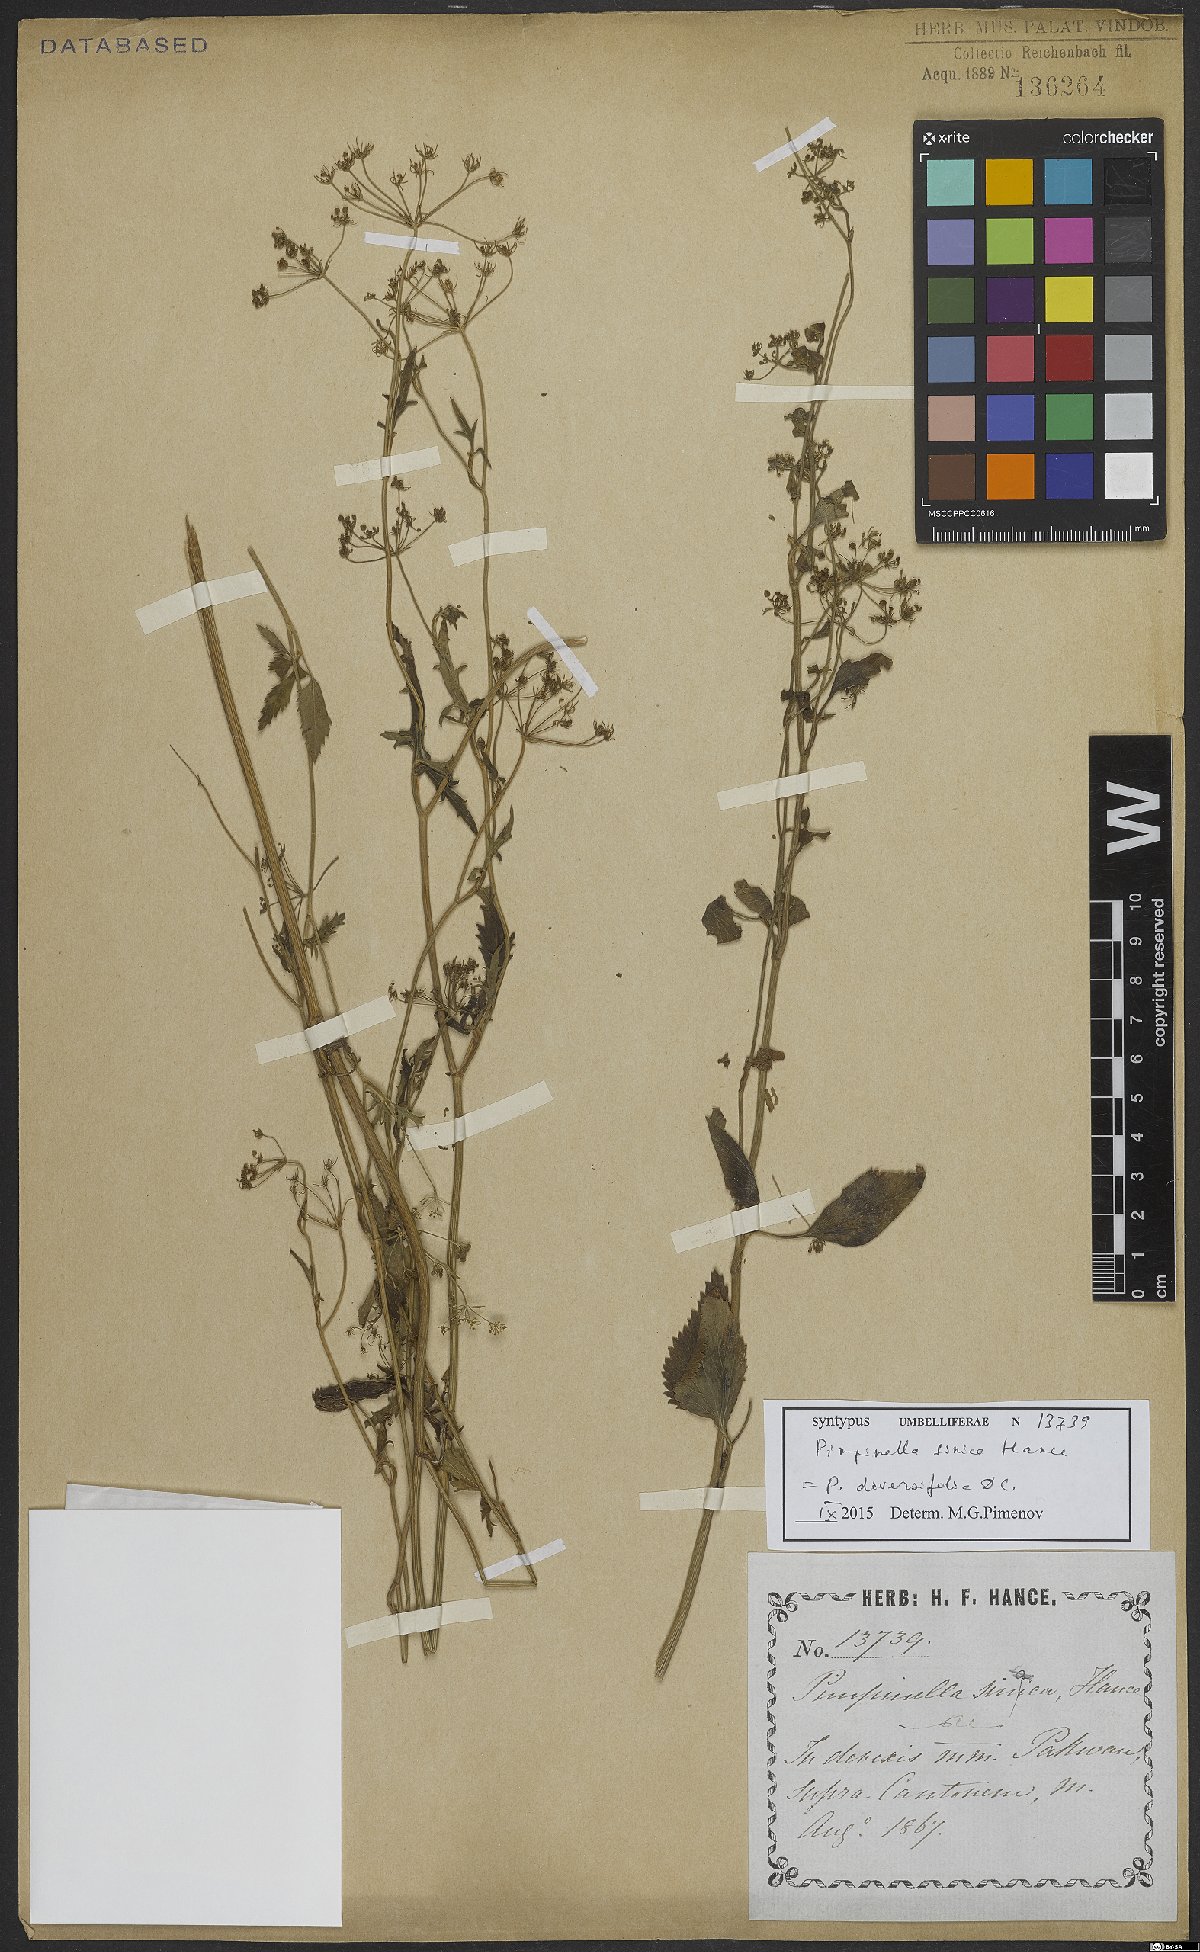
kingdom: Plantae
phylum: Tracheophyta
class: Magnoliopsida
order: Apiales
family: Apiaceae
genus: Pimpinella
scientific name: Pimpinella diversifolia
